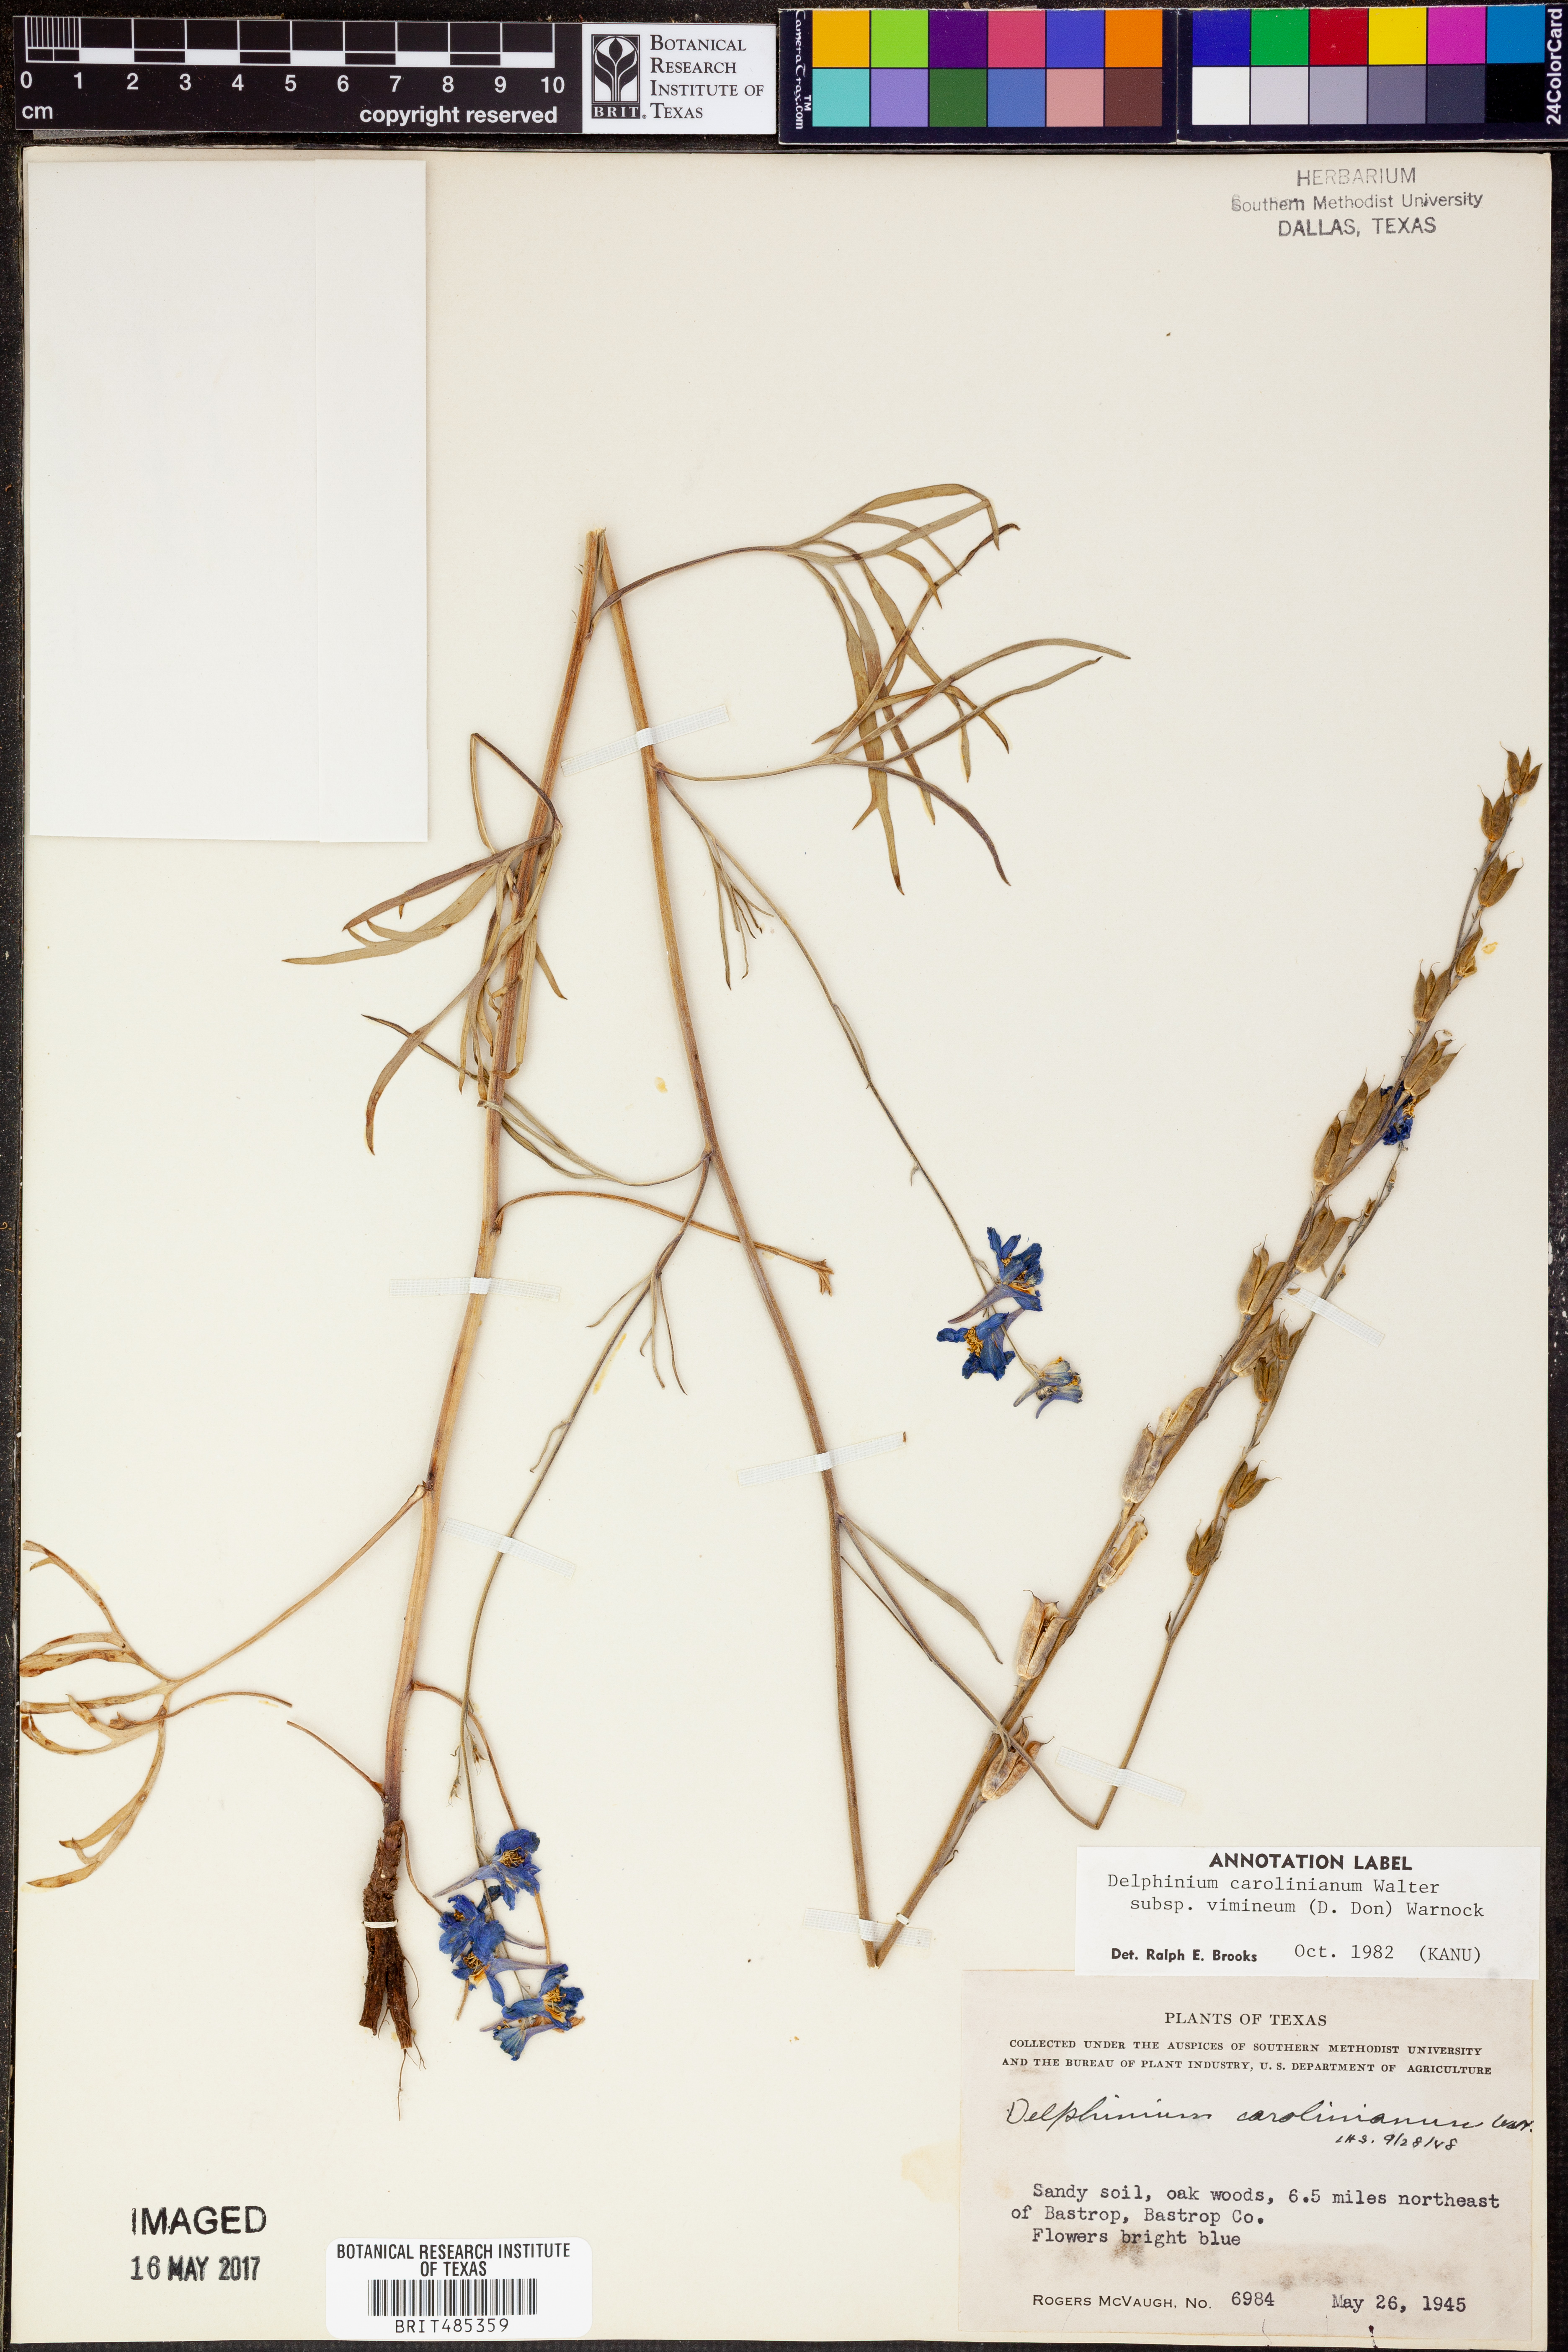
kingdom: Plantae
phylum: Tracheophyta
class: Magnoliopsida
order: Ranunculales
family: Ranunculaceae
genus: Delphinium
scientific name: Delphinium carolinianum
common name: Carolina larkspur
